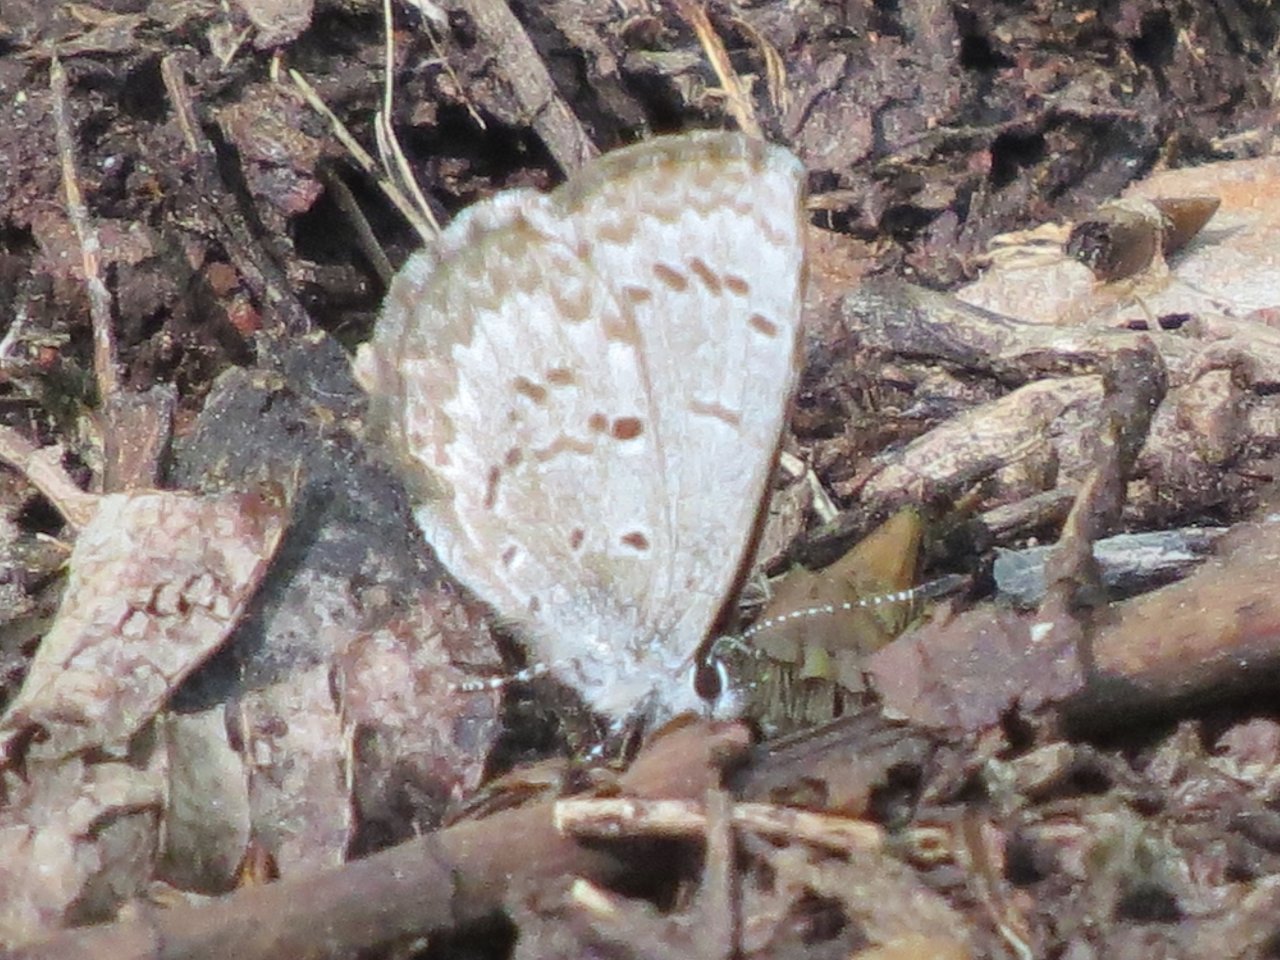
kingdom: Animalia
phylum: Arthropoda
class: Insecta
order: Lepidoptera
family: Lycaenidae
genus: Celastrina
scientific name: Celastrina lucia
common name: Northern Spring Azure
